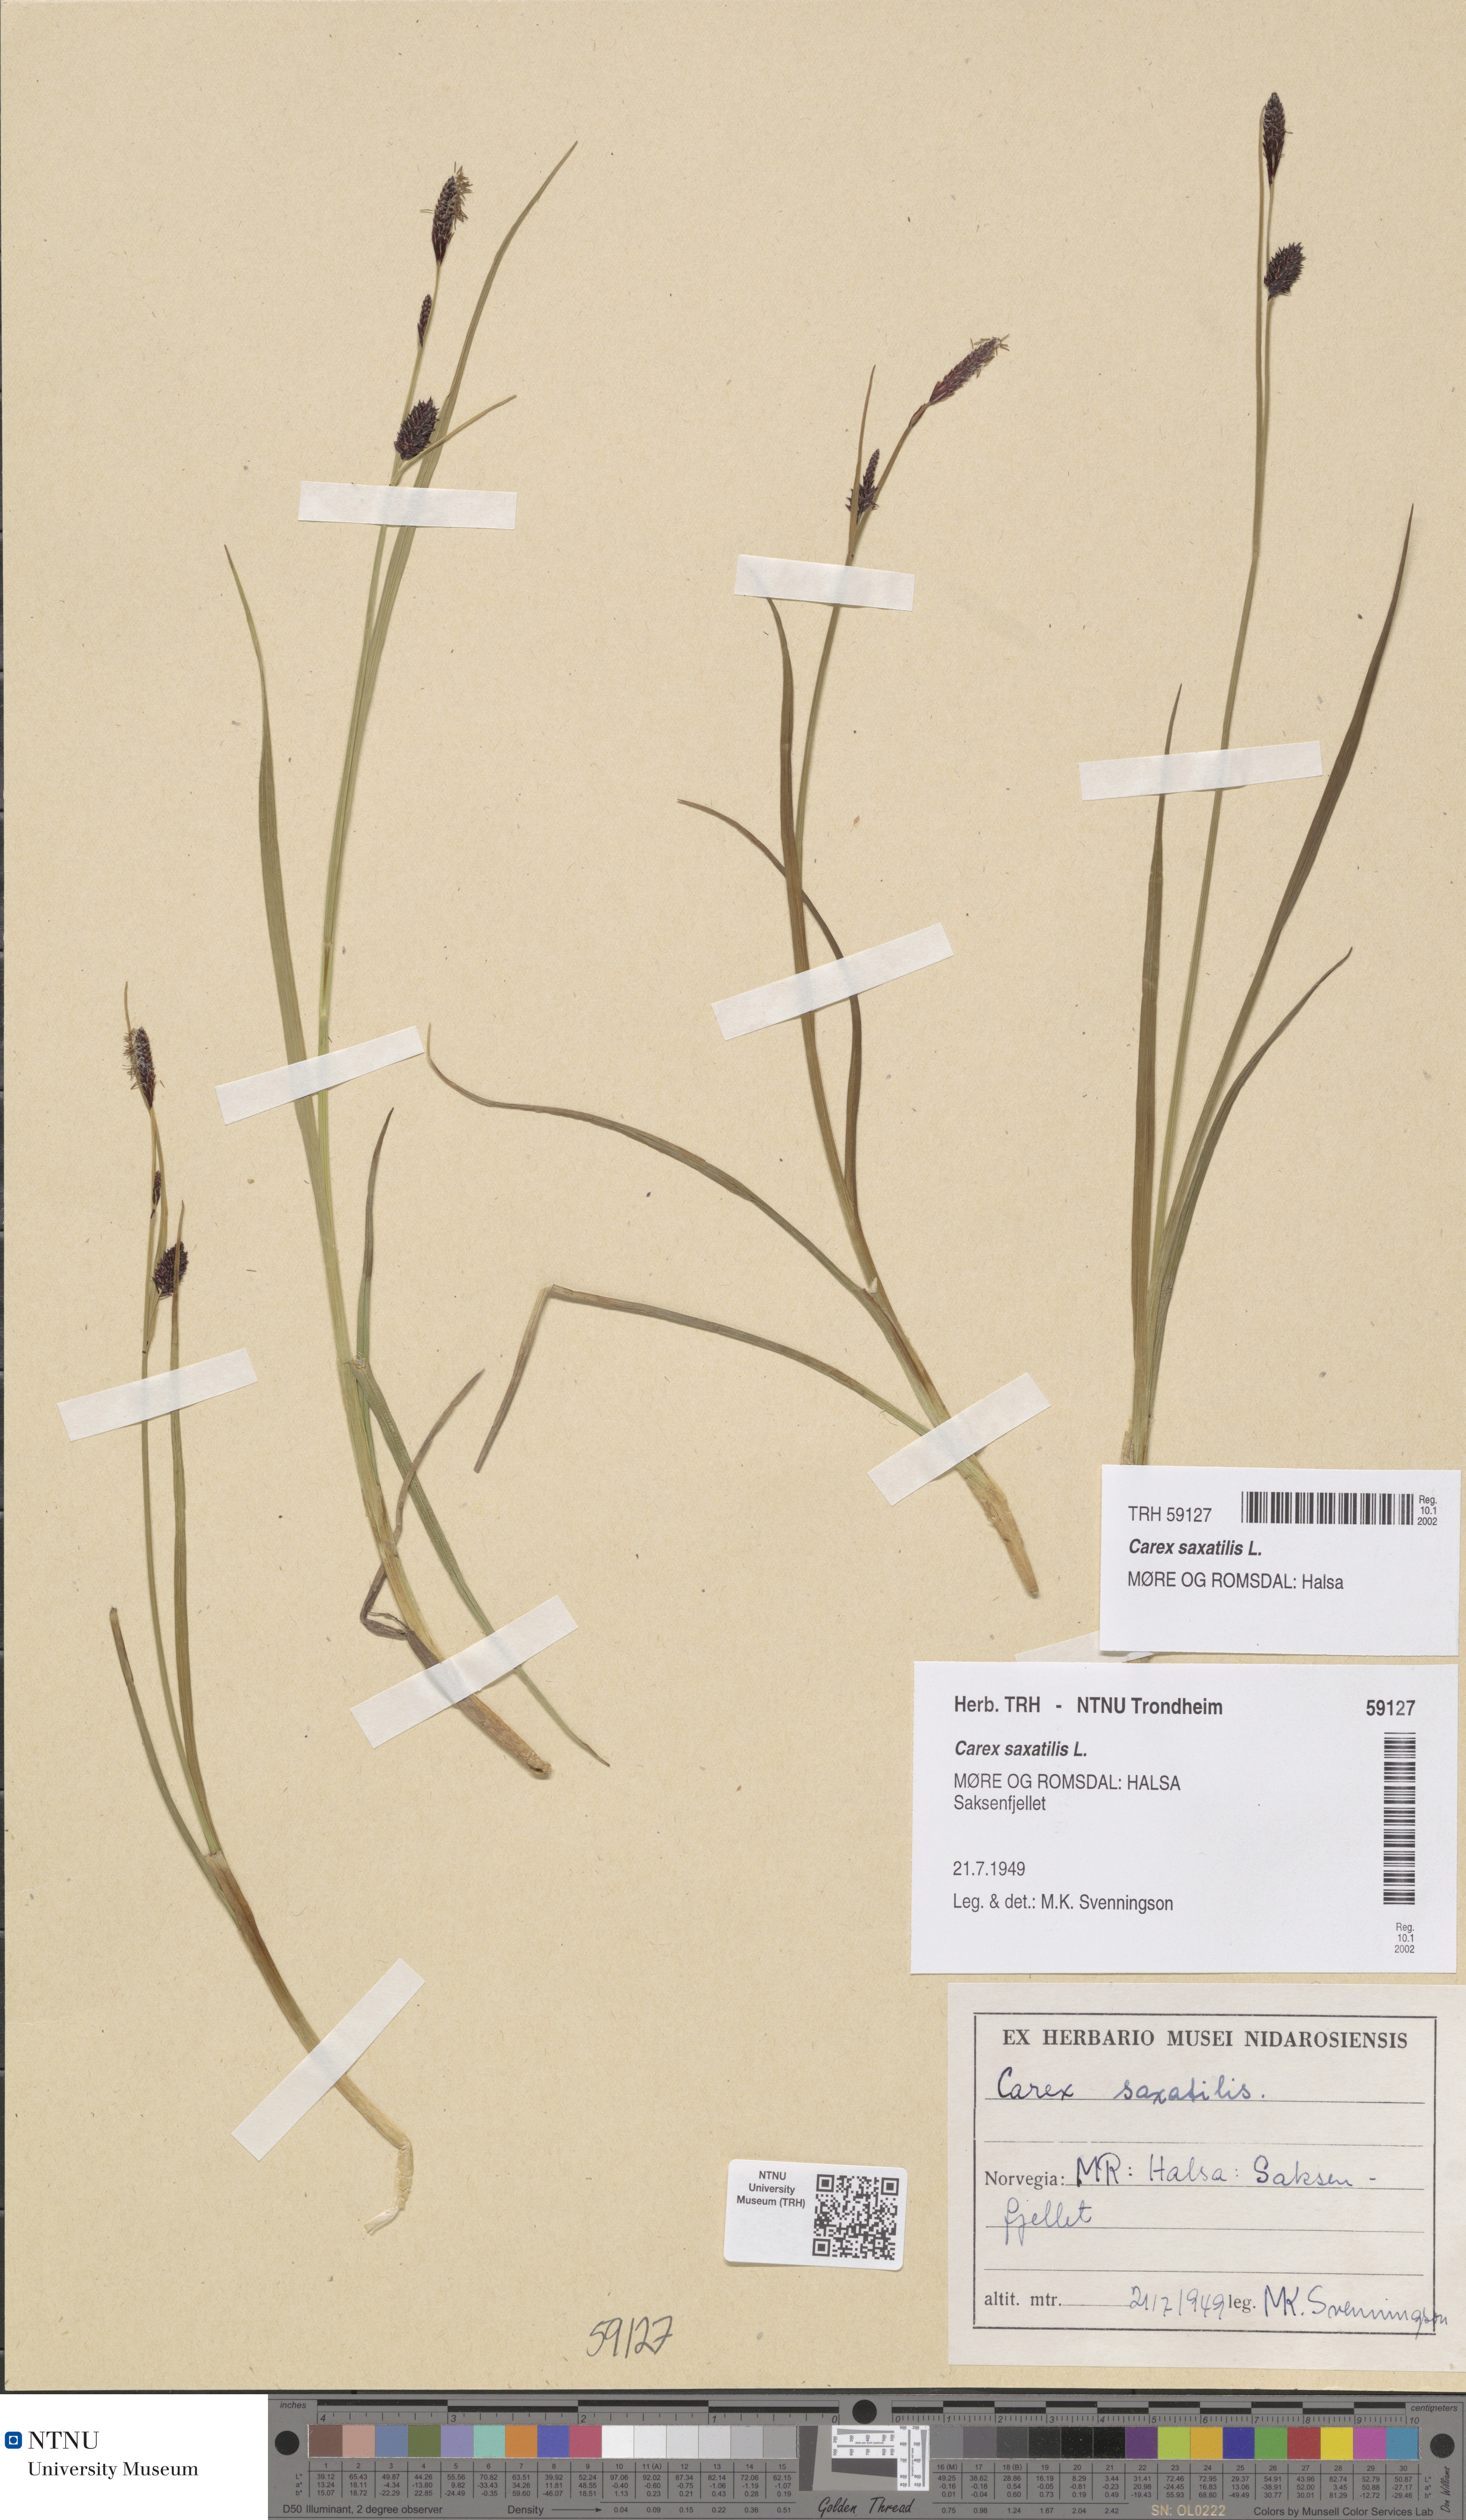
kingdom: Plantae
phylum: Tracheophyta
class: Liliopsida
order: Poales
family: Cyperaceae
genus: Carex
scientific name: Carex saxatilis
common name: Russet sedge
